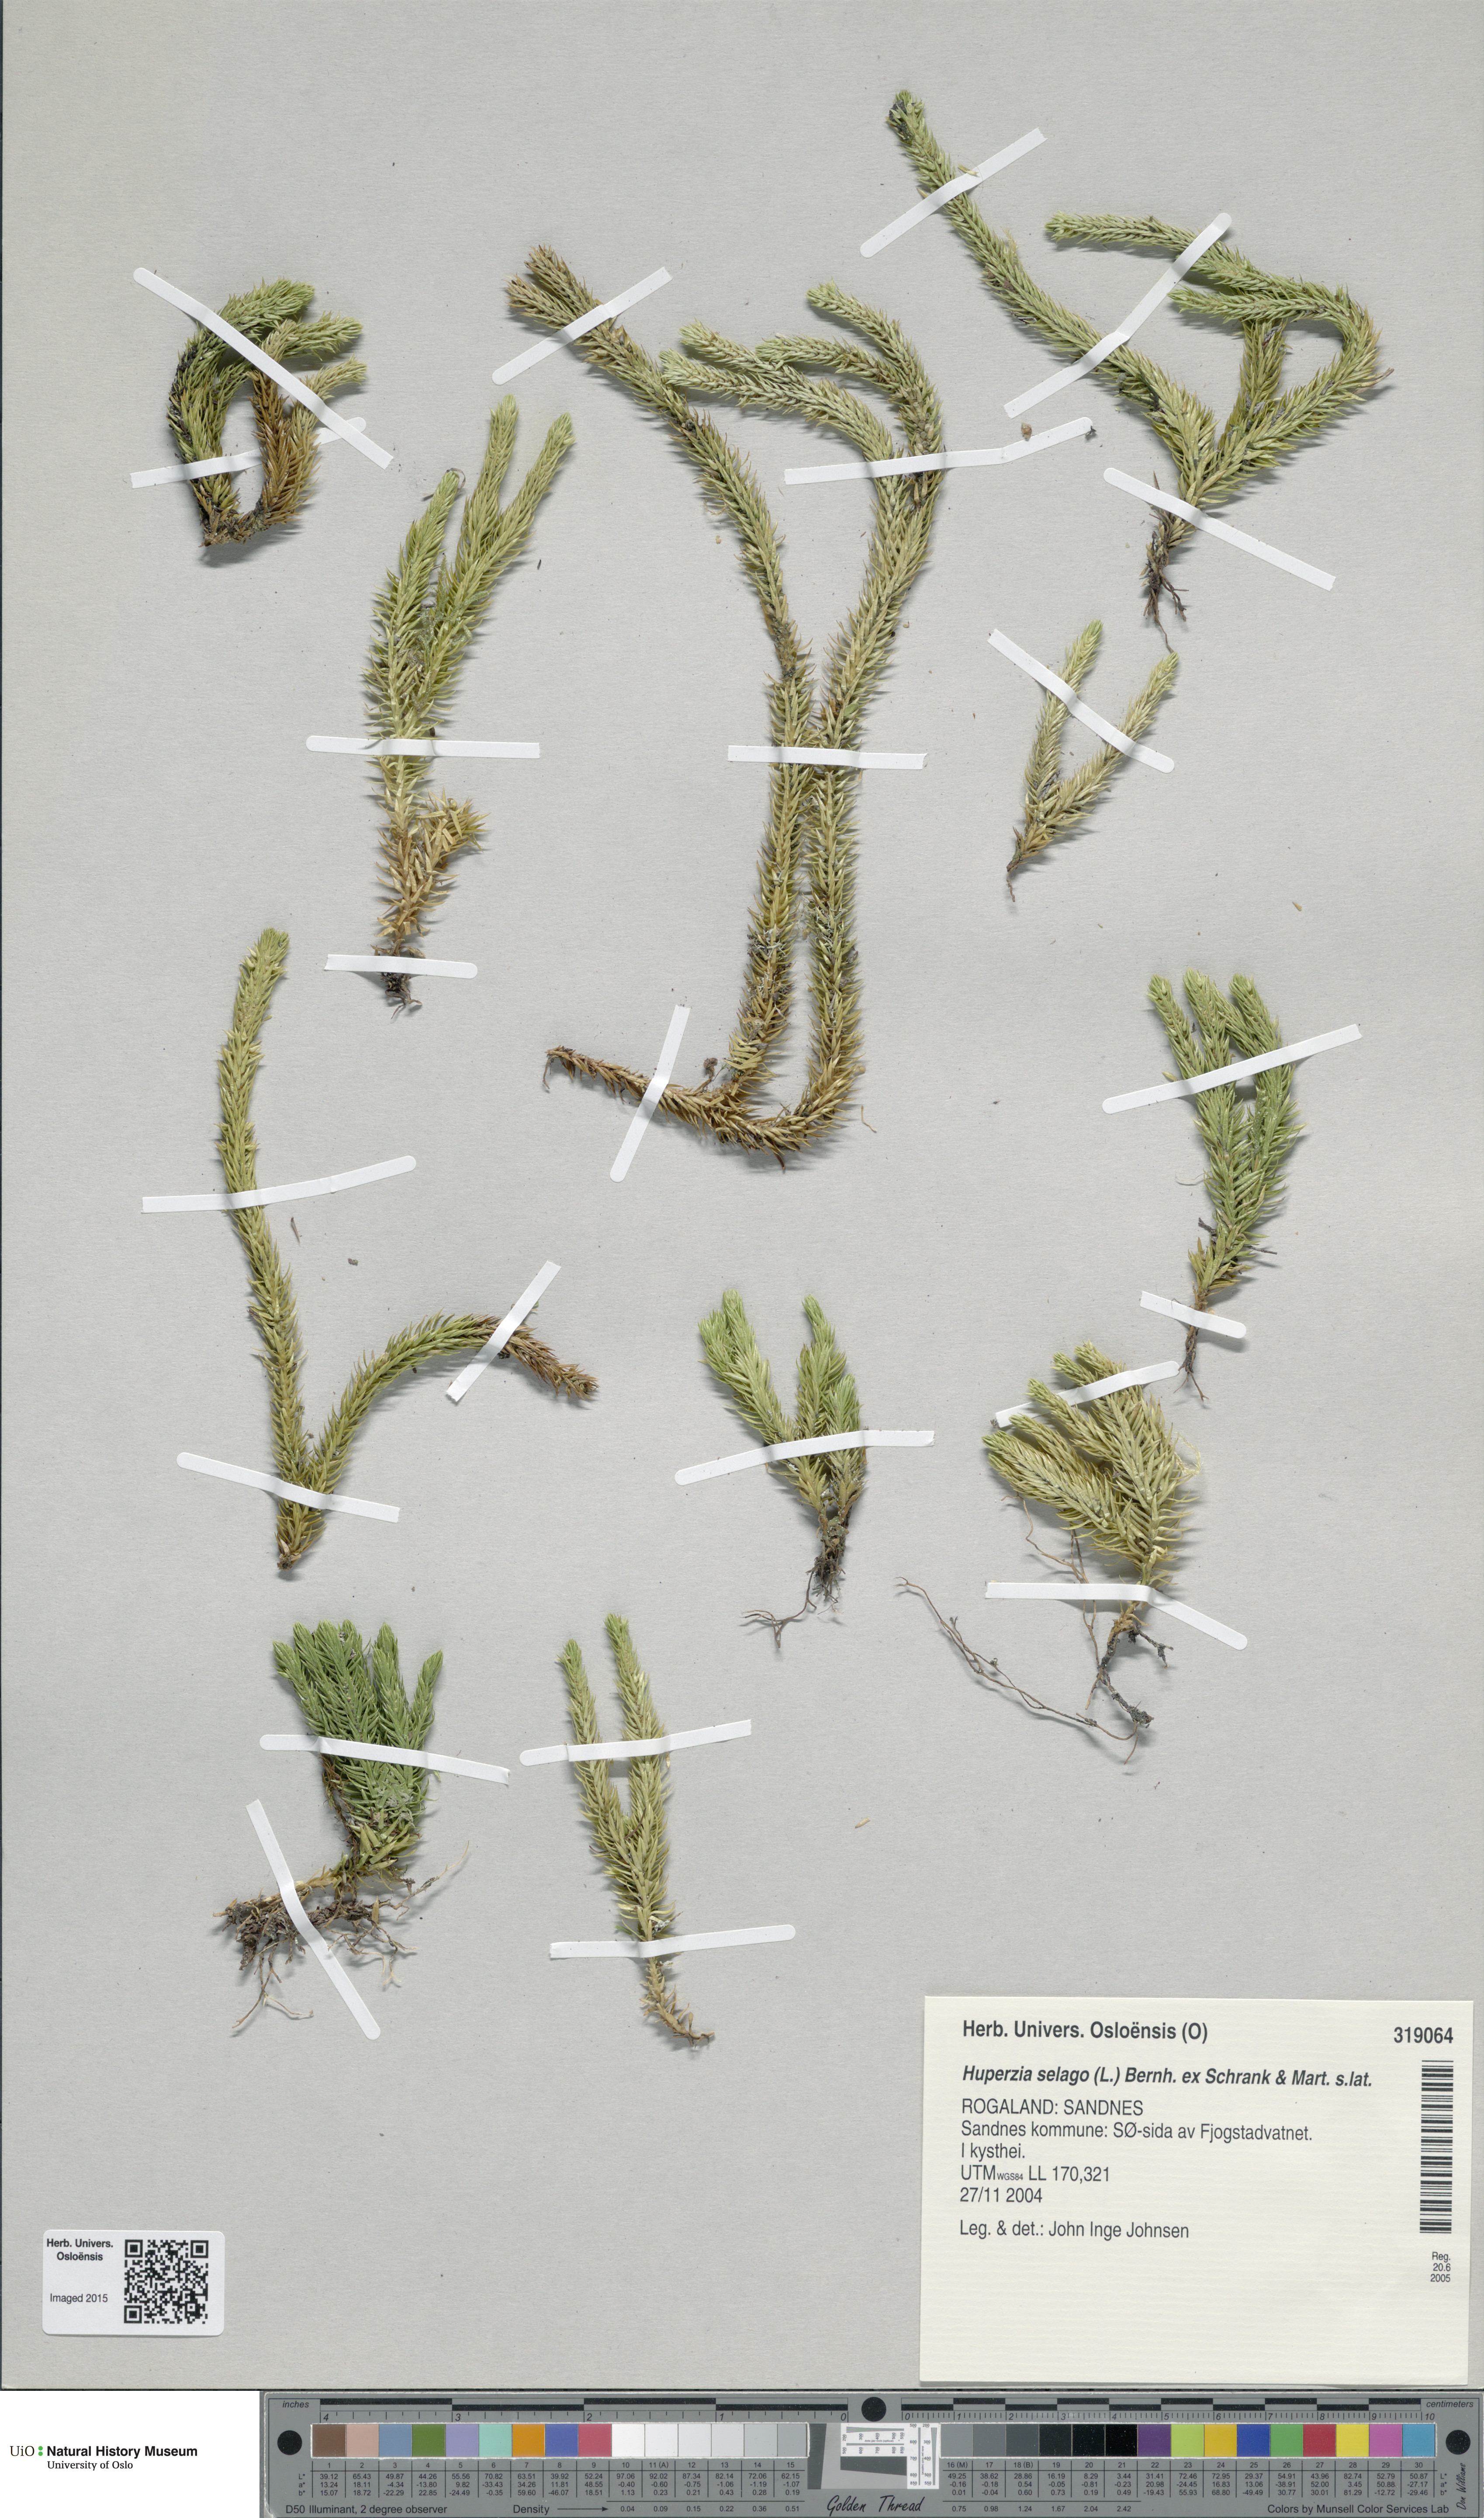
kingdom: Plantae
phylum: Tracheophyta
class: Lycopodiopsida
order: Lycopodiales
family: Lycopodiaceae
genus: Huperzia
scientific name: Huperzia selago
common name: Northern firmoss
